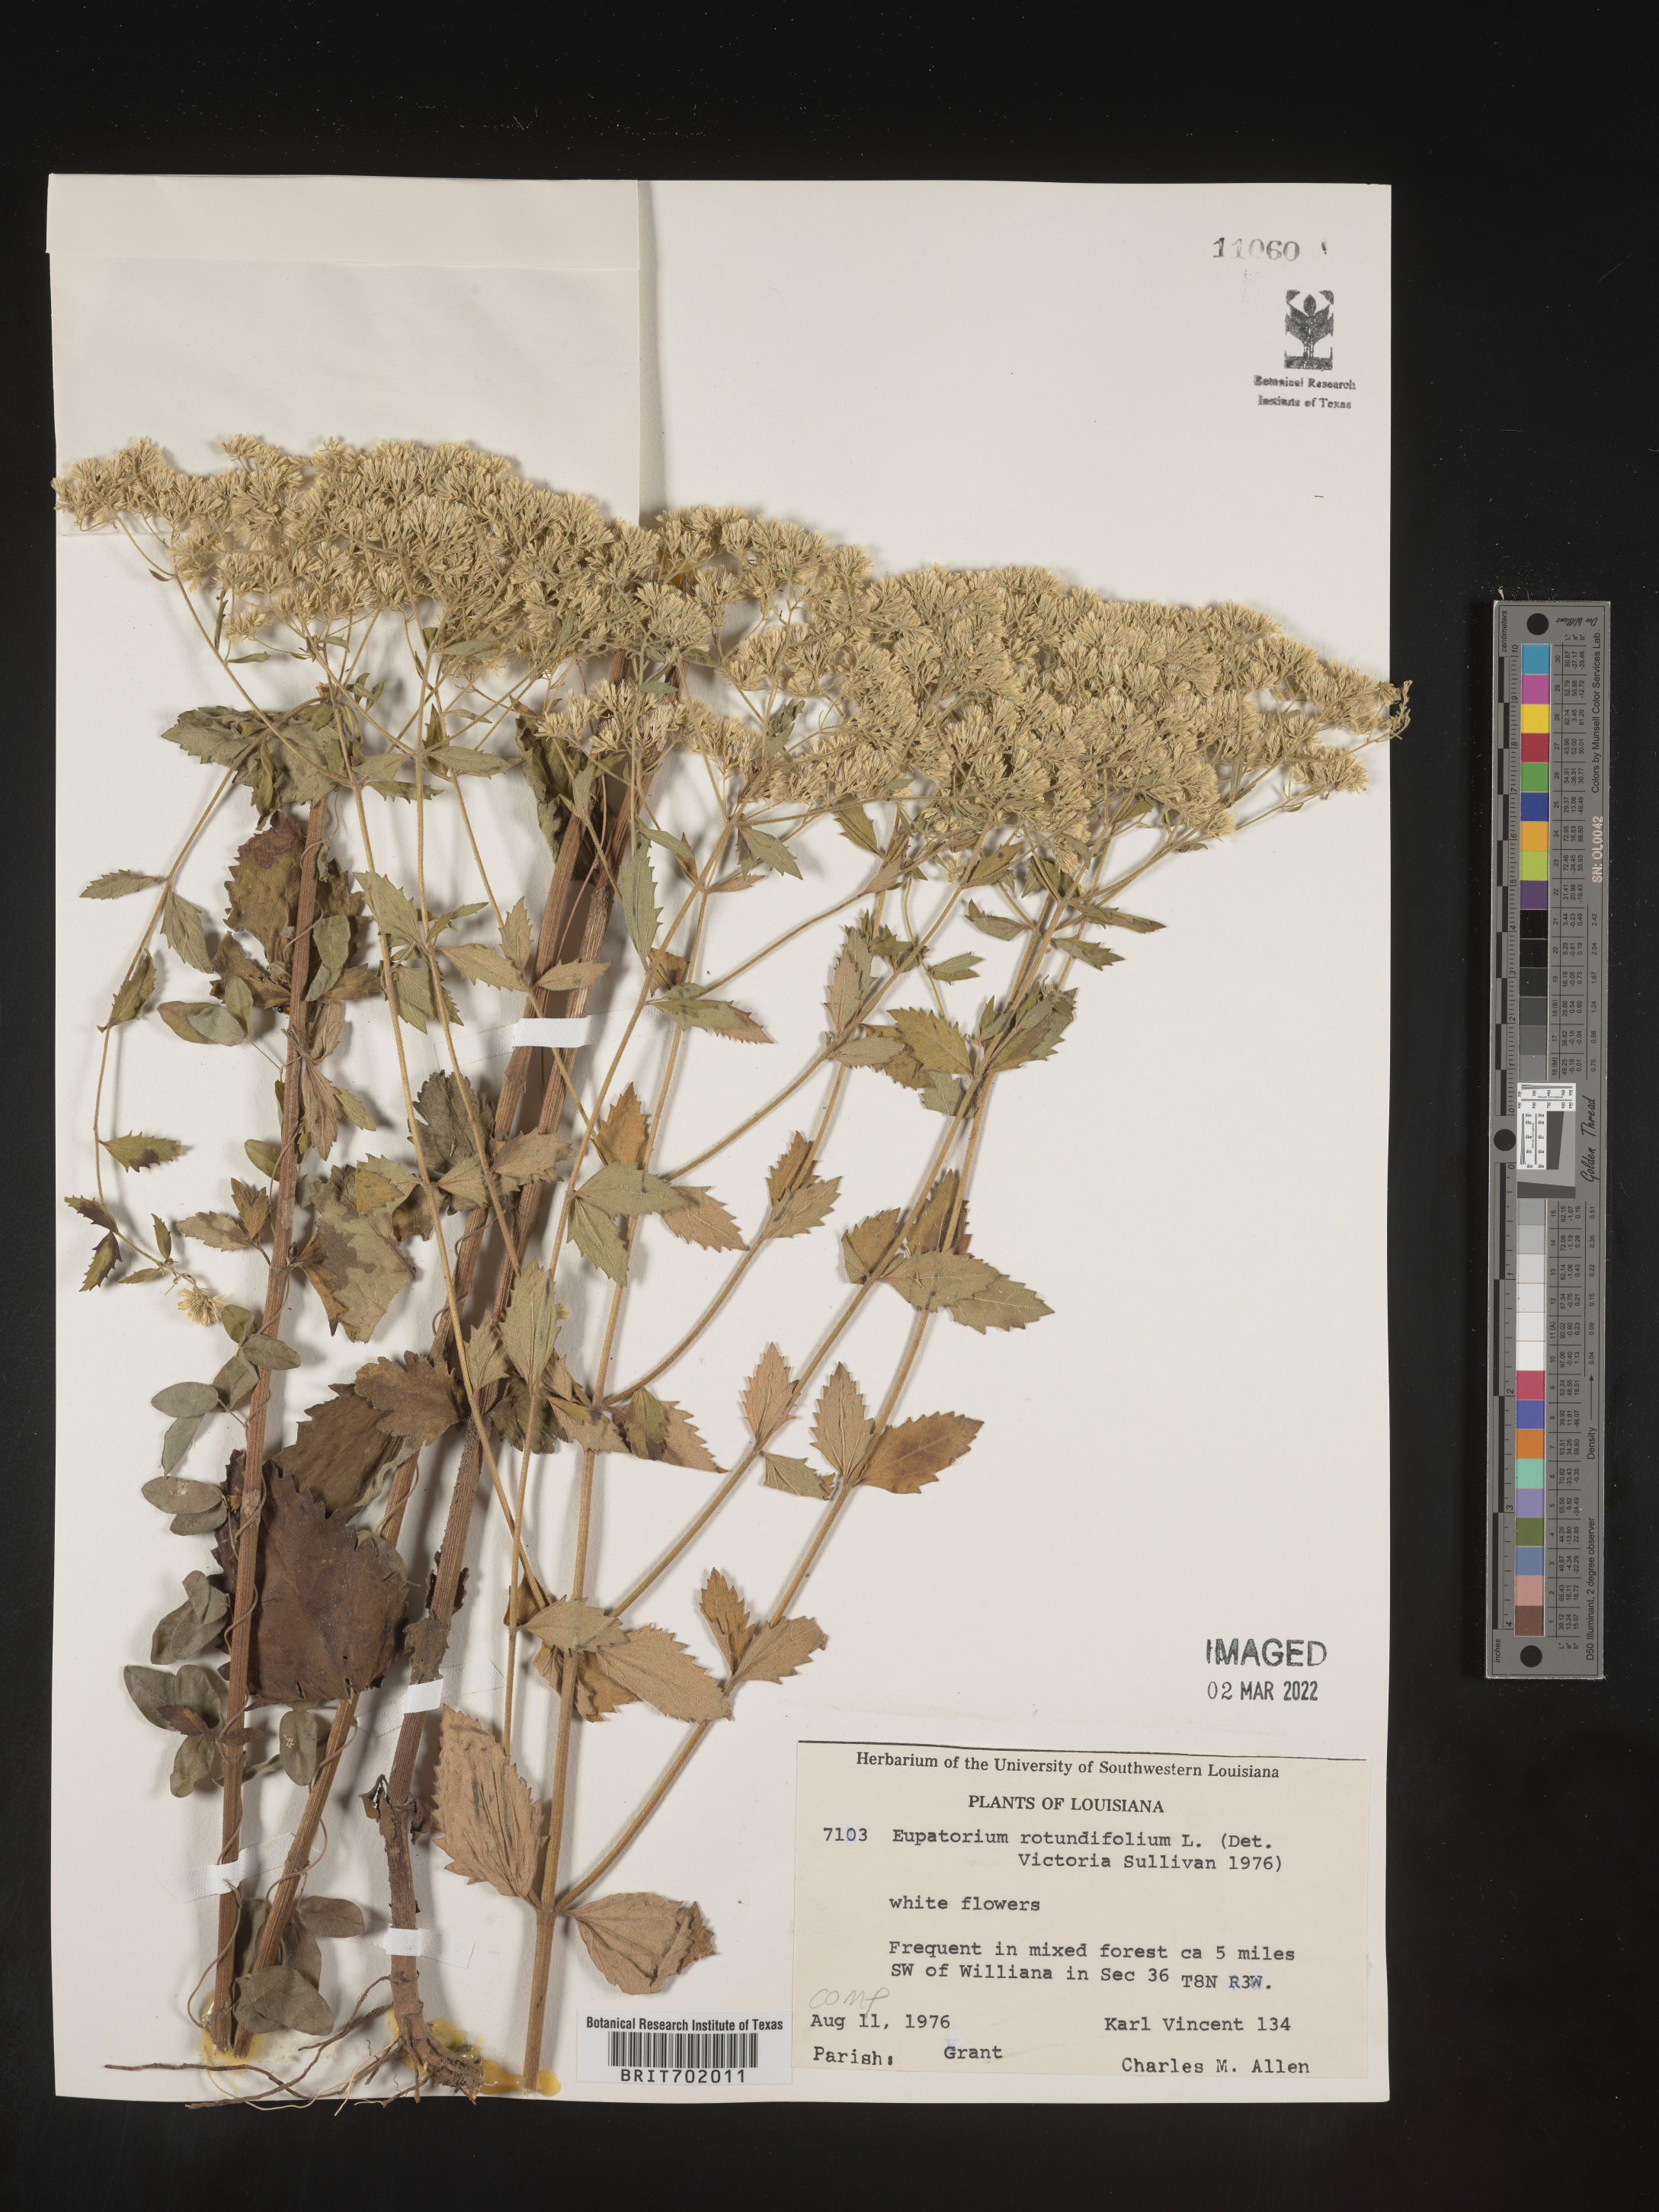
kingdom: Plantae
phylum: Tracheophyta
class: Magnoliopsida
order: Asterales
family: Asteraceae
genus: Eupatorium
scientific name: Eupatorium rotundifolium
